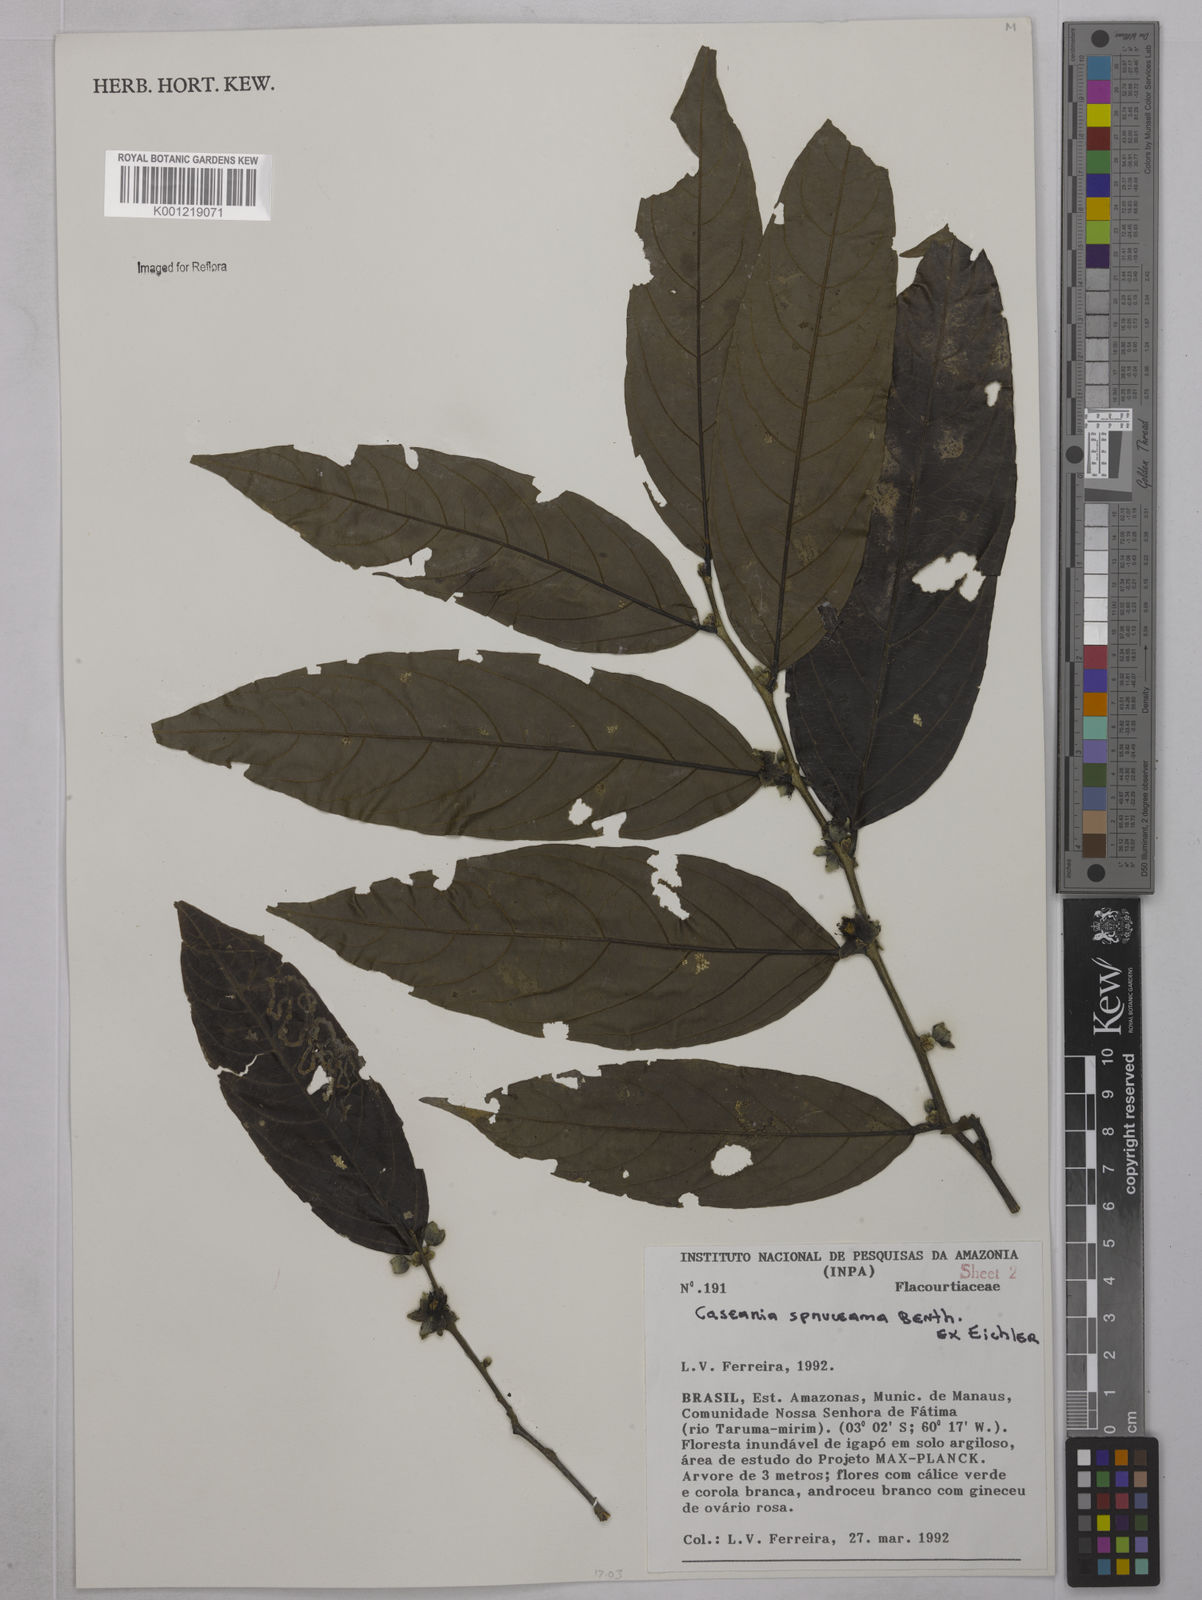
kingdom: Plantae
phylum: Tracheophyta
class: Magnoliopsida
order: Malpighiales
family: Salicaceae
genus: Piparea
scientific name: Piparea spruceana
